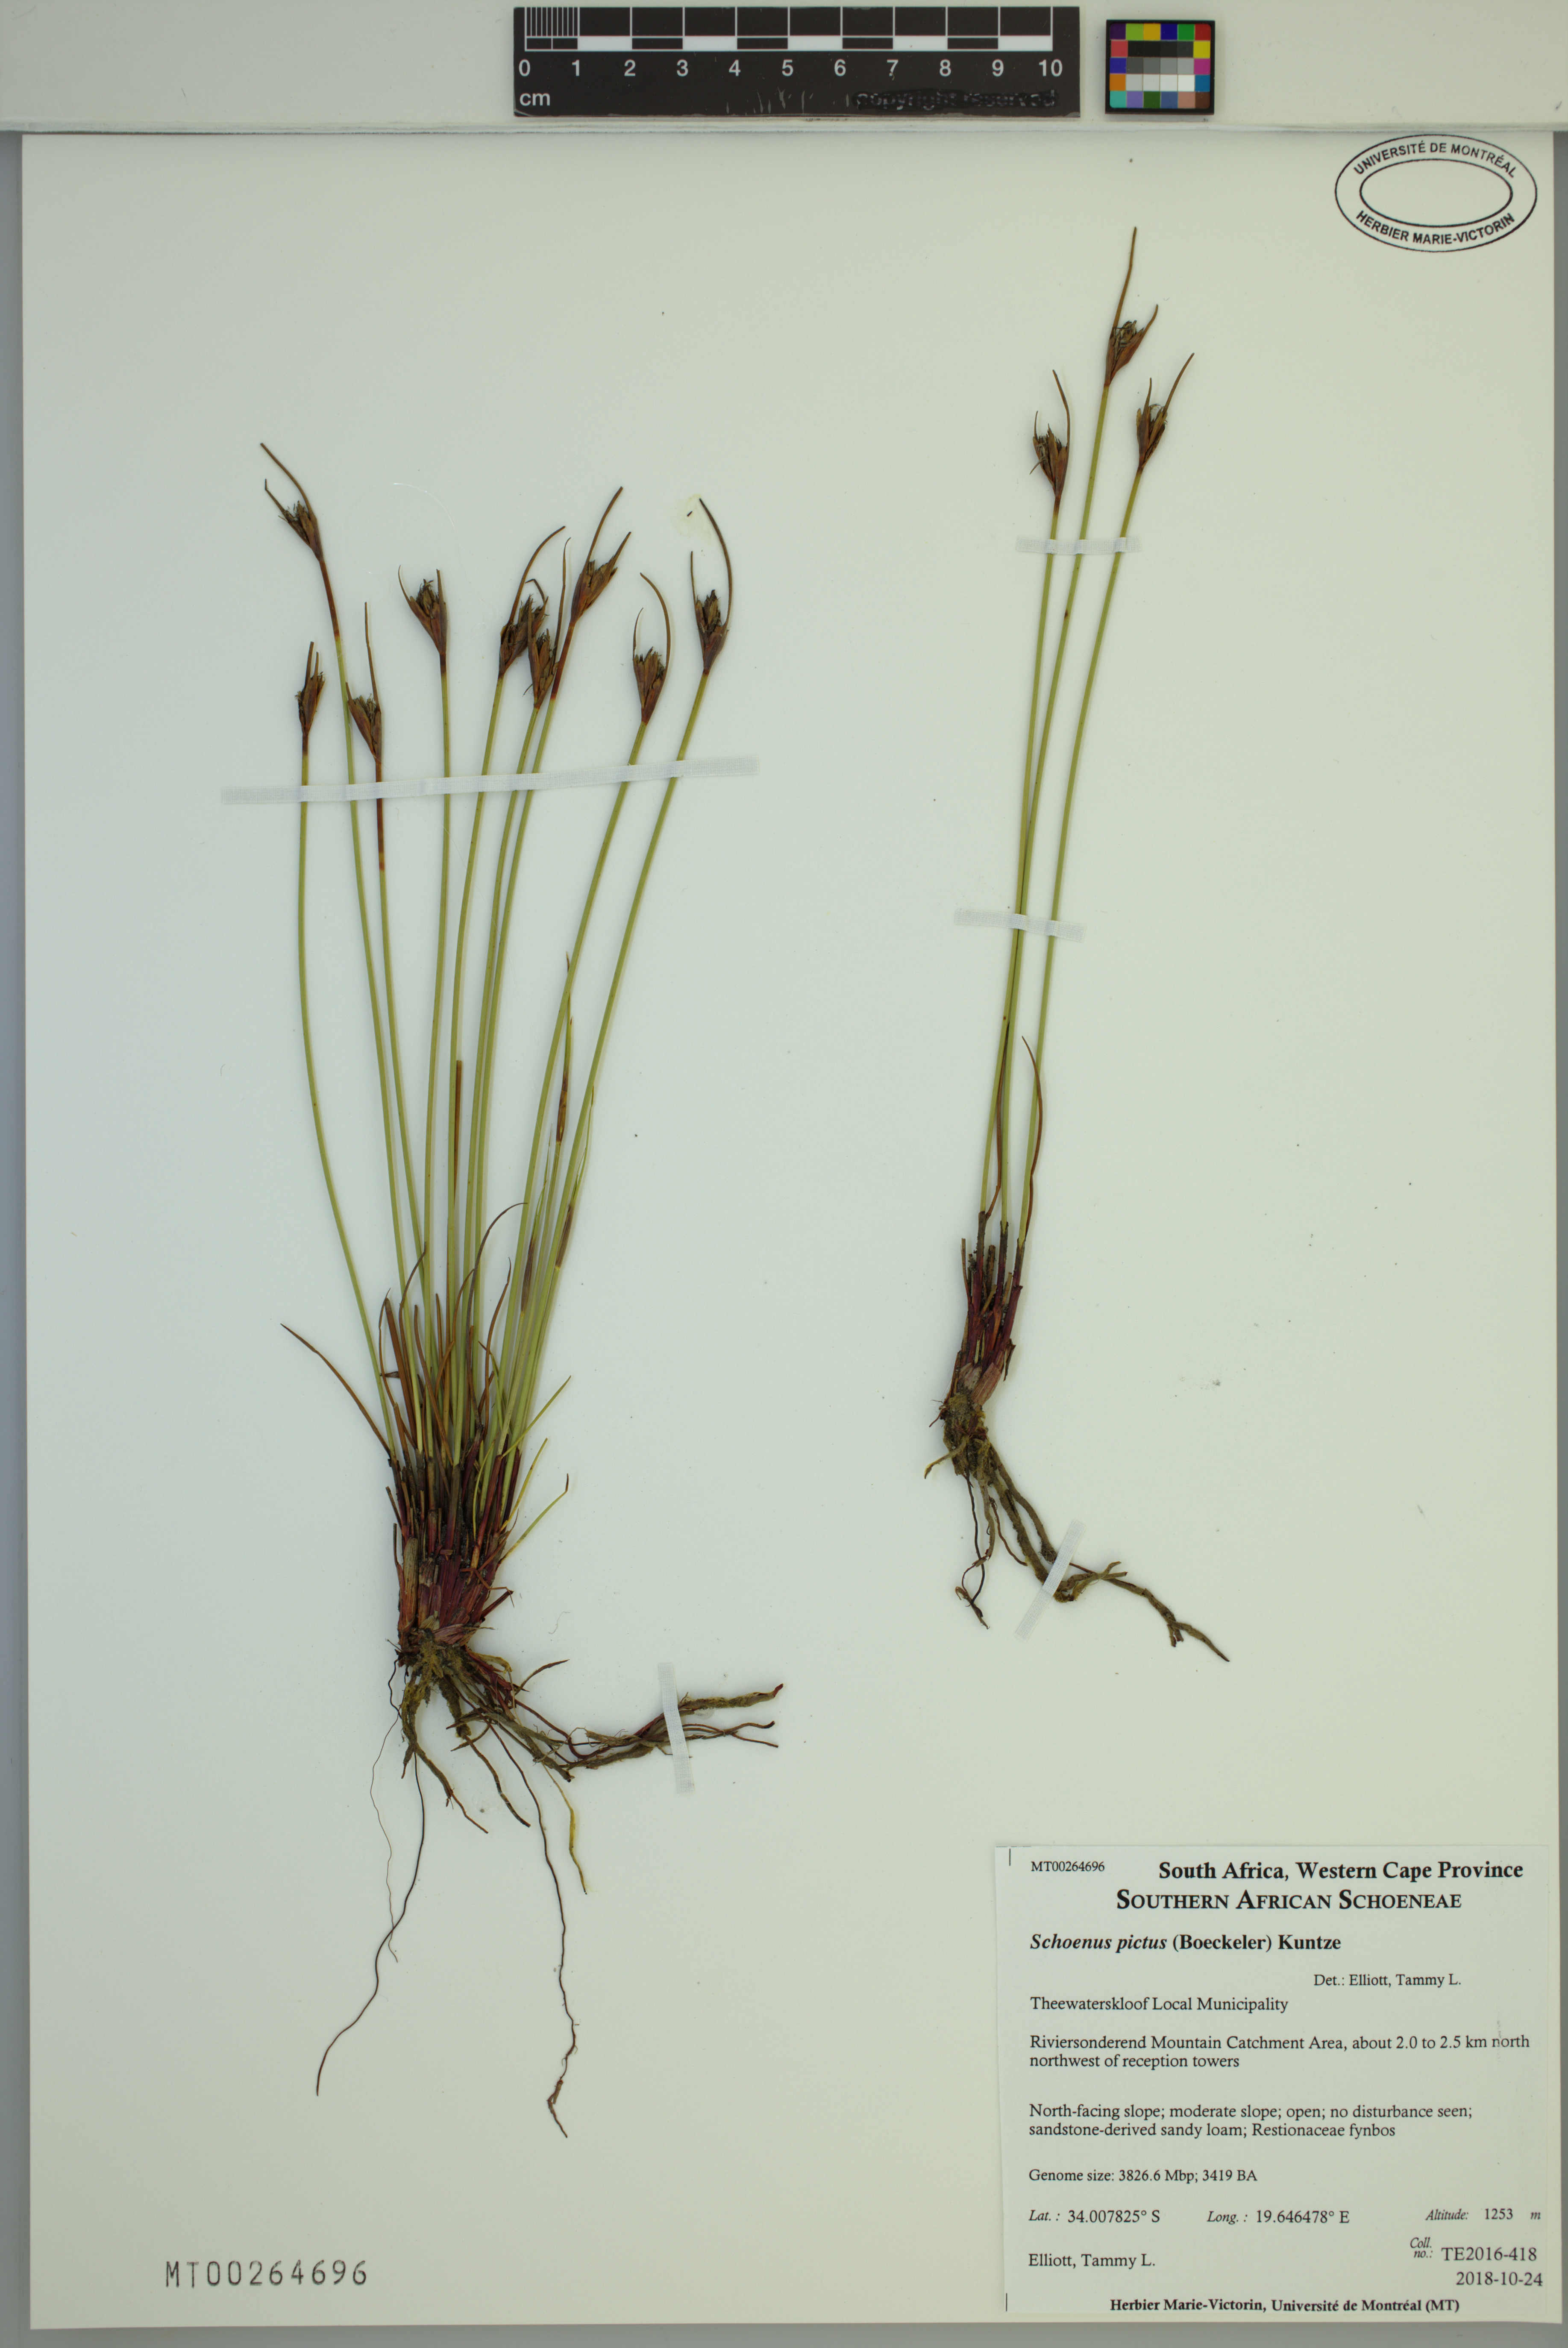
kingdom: Plantae
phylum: Tracheophyta
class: Liliopsida
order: Poales
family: Cyperaceae
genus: Schoenus
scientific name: Schoenus pictus
